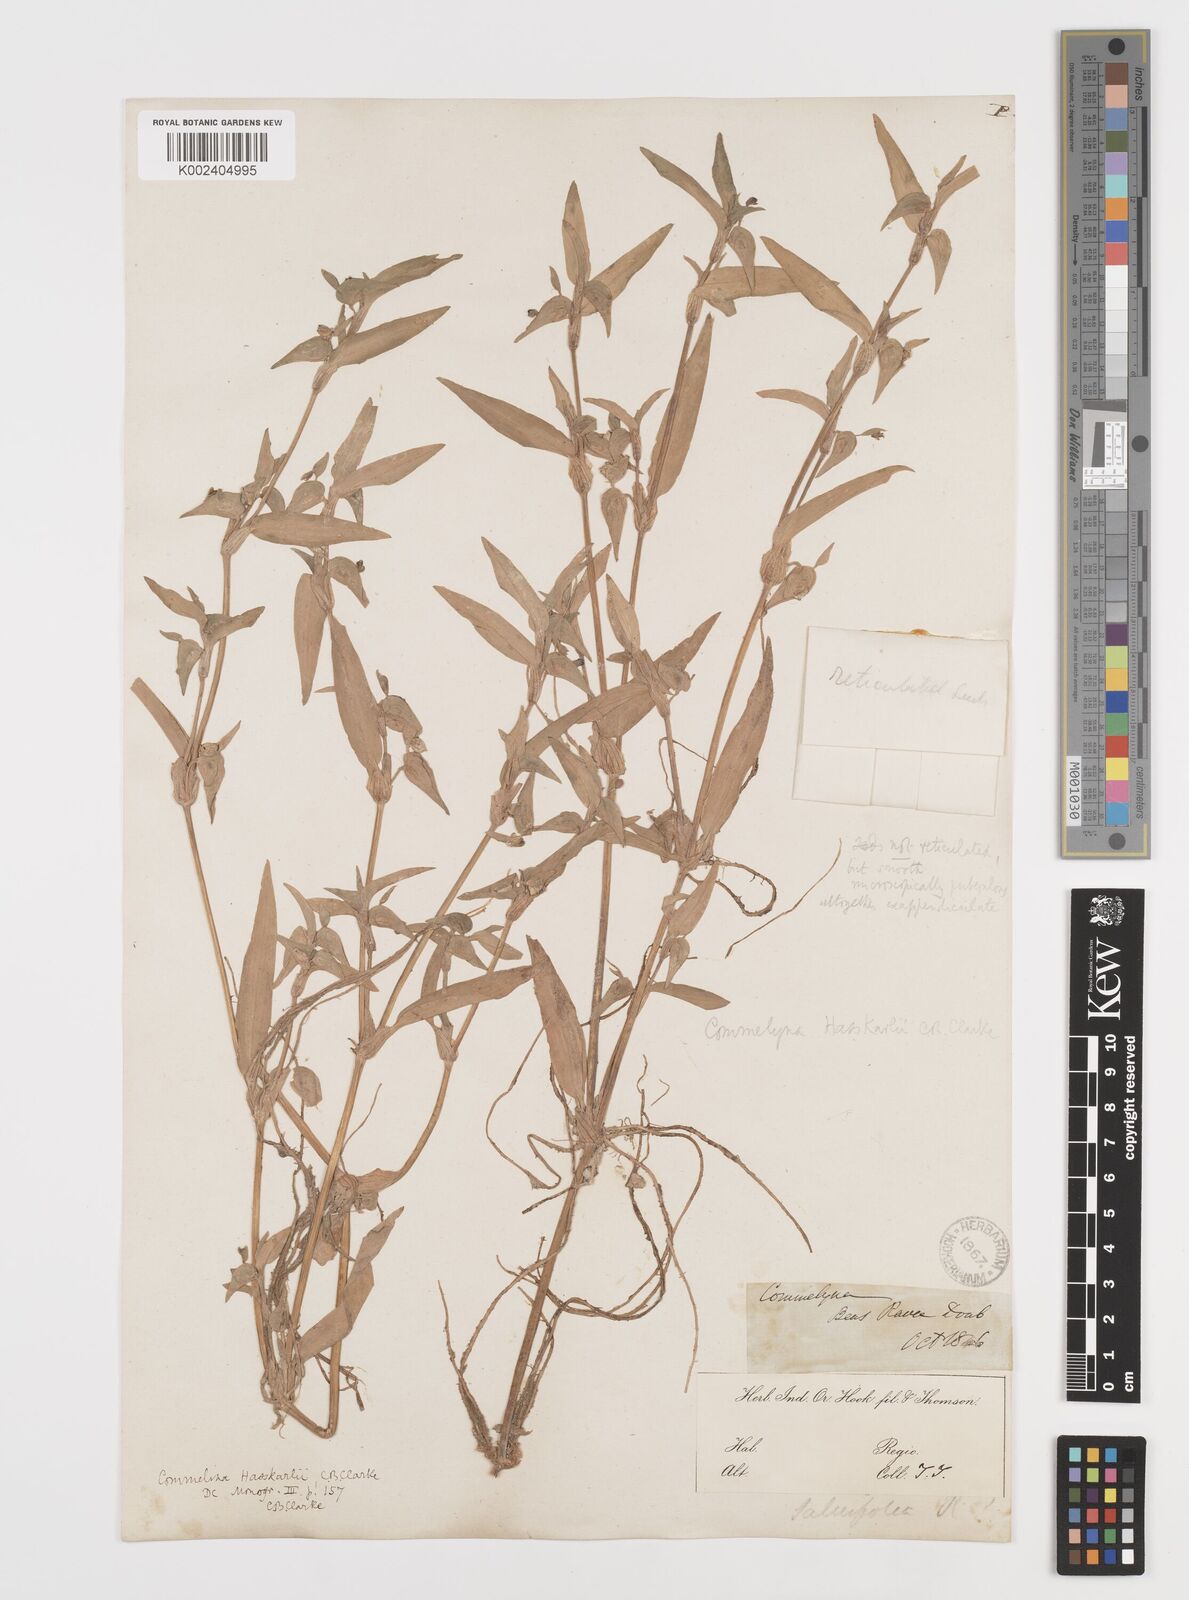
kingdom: Plantae
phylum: Tracheophyta
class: Liliopsida
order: Commelinales
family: Commelinaceae
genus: Commelina
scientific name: Commelina caroliniana
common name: Carolina dayflower
